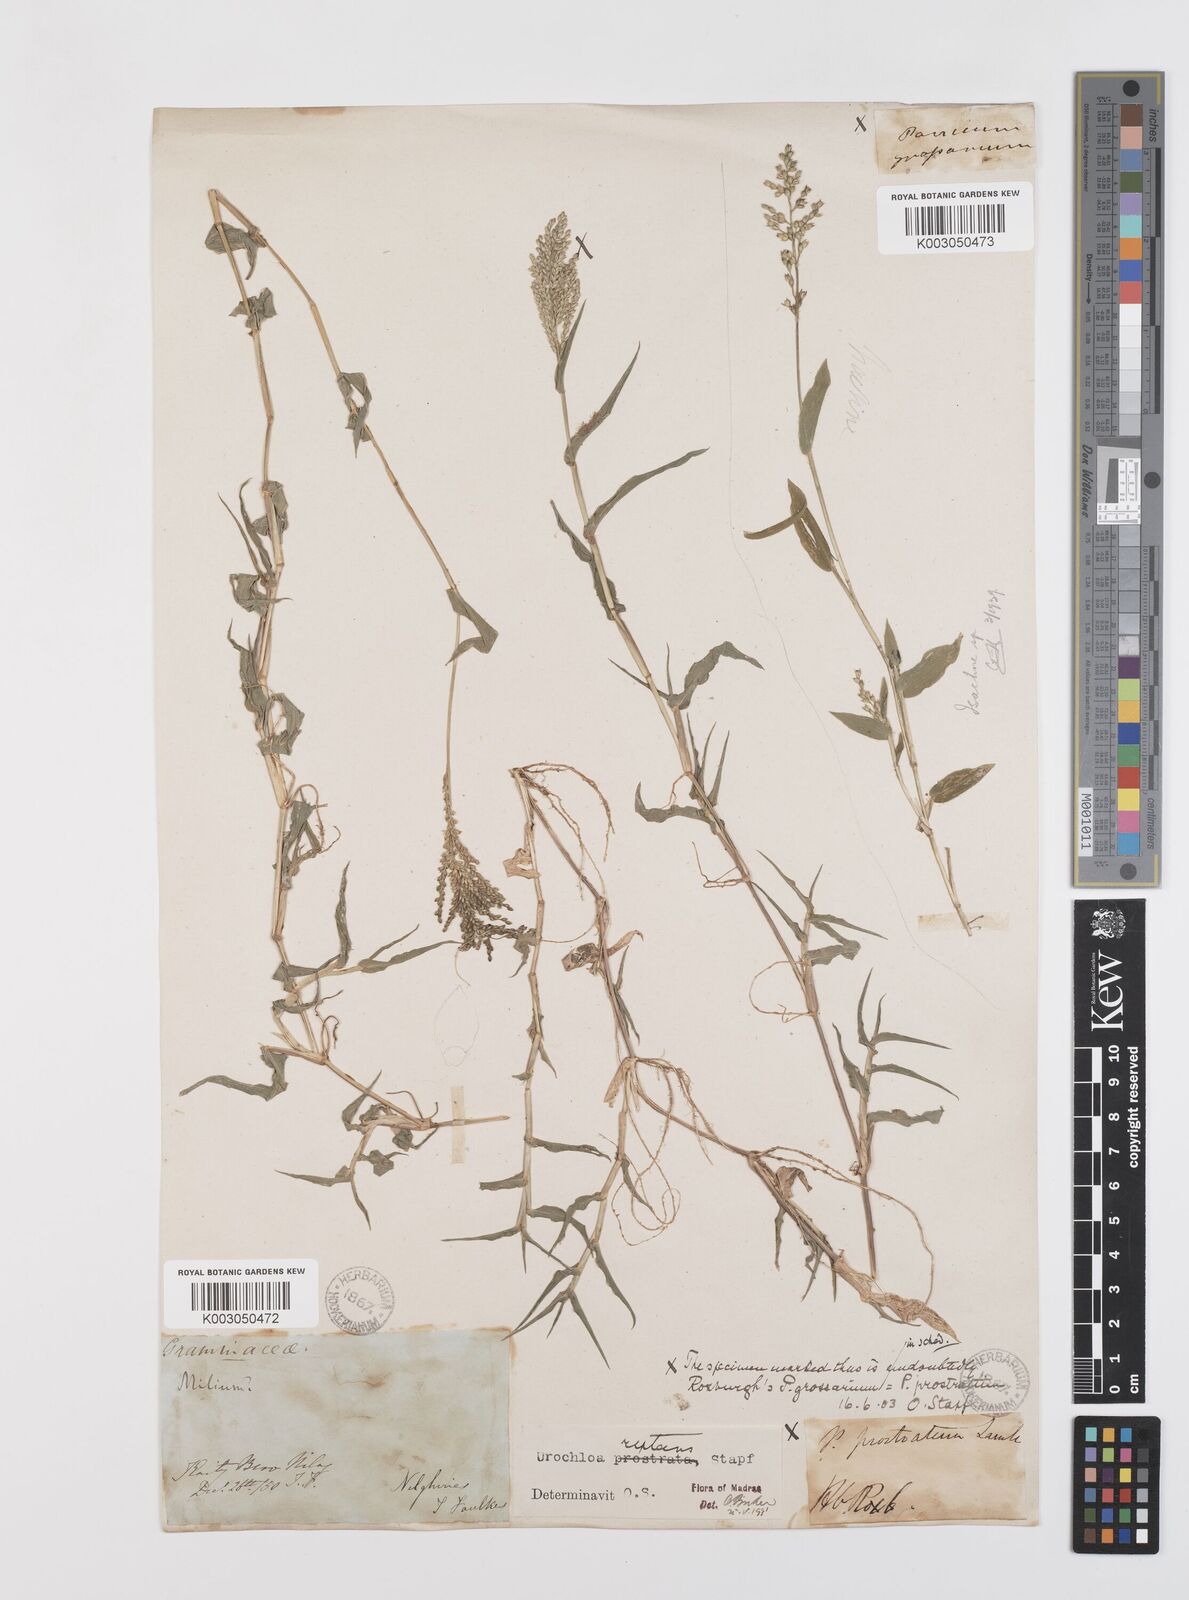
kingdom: Plantae
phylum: Tracheophyta
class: Liliopsida
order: Poales
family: Poaceae
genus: Urochloa
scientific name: Urochloa reptans
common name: Sprawling signalgrass
